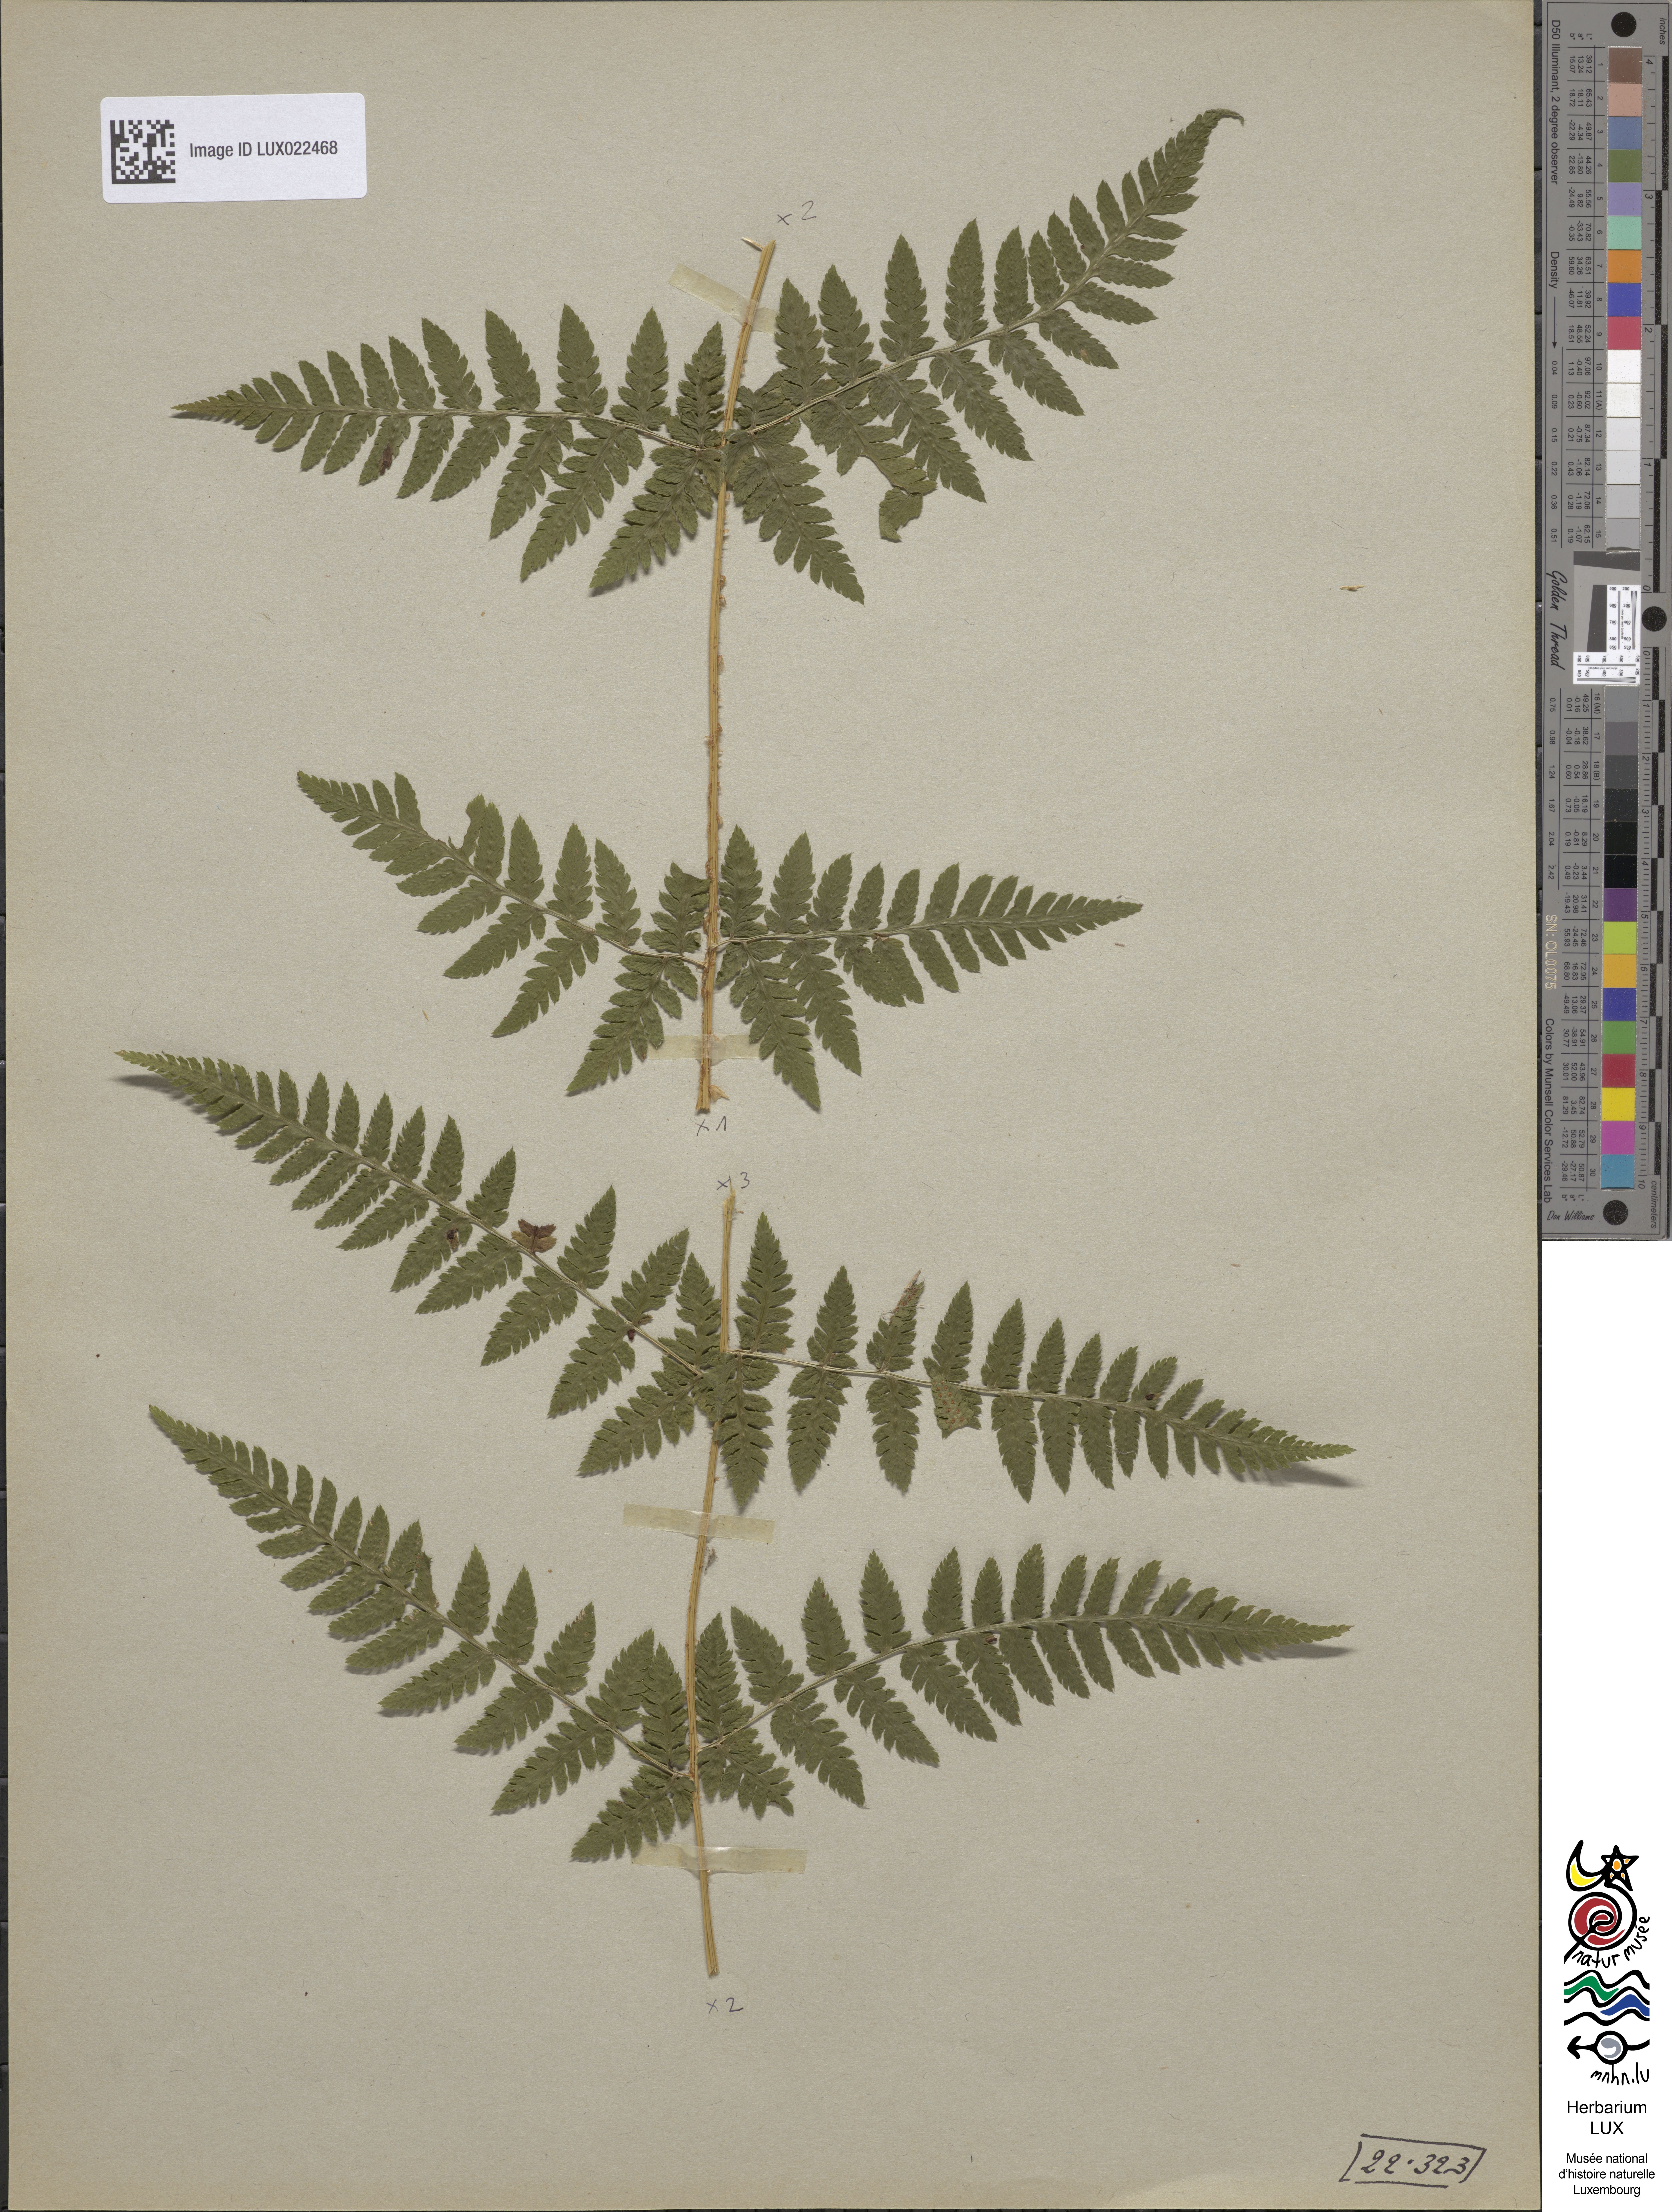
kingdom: Plantae
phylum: Tracheophyta
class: Polypodiopsida
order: Polypodiales
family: Dryopteridaceae
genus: Dryopteris
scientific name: Dryopteris carthusiana
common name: Narrow buckler-fern
